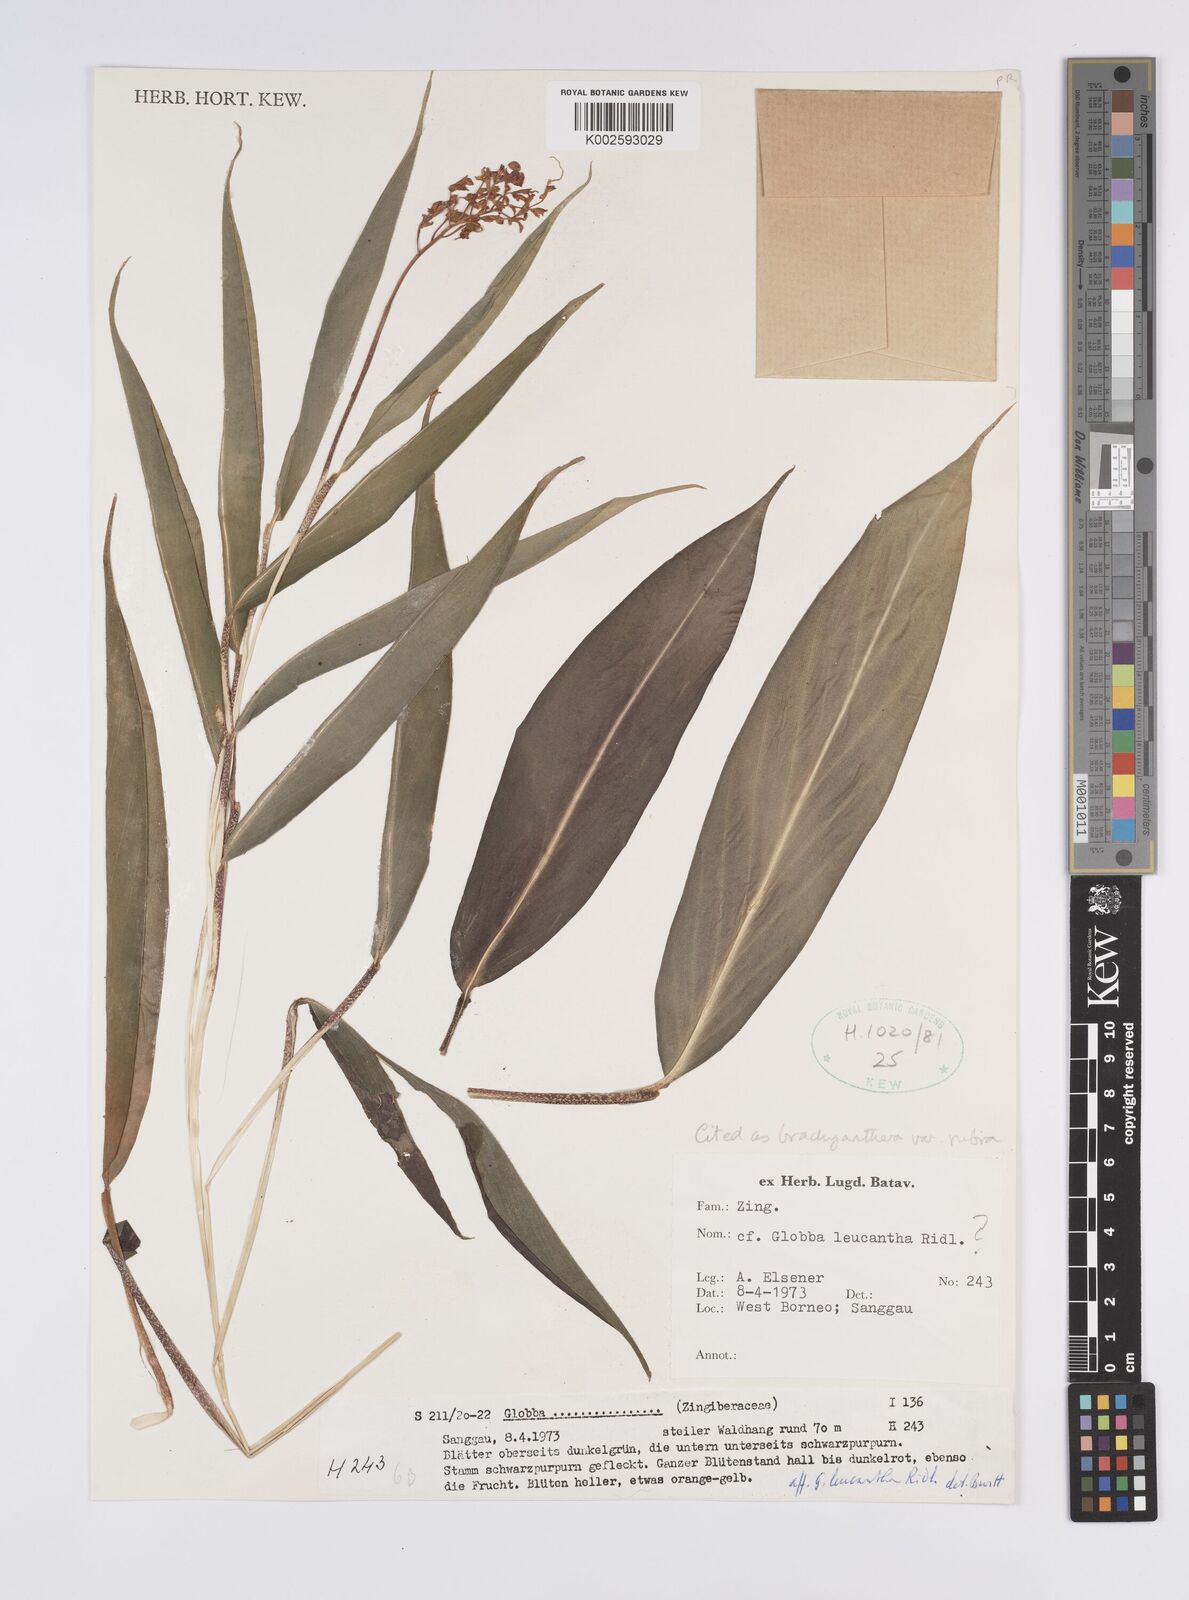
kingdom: Plantae
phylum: Tracheophyta
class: Liliopsida
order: Zingiberales
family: Zingiberaceae
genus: Globba
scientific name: Globba brachyanthera
